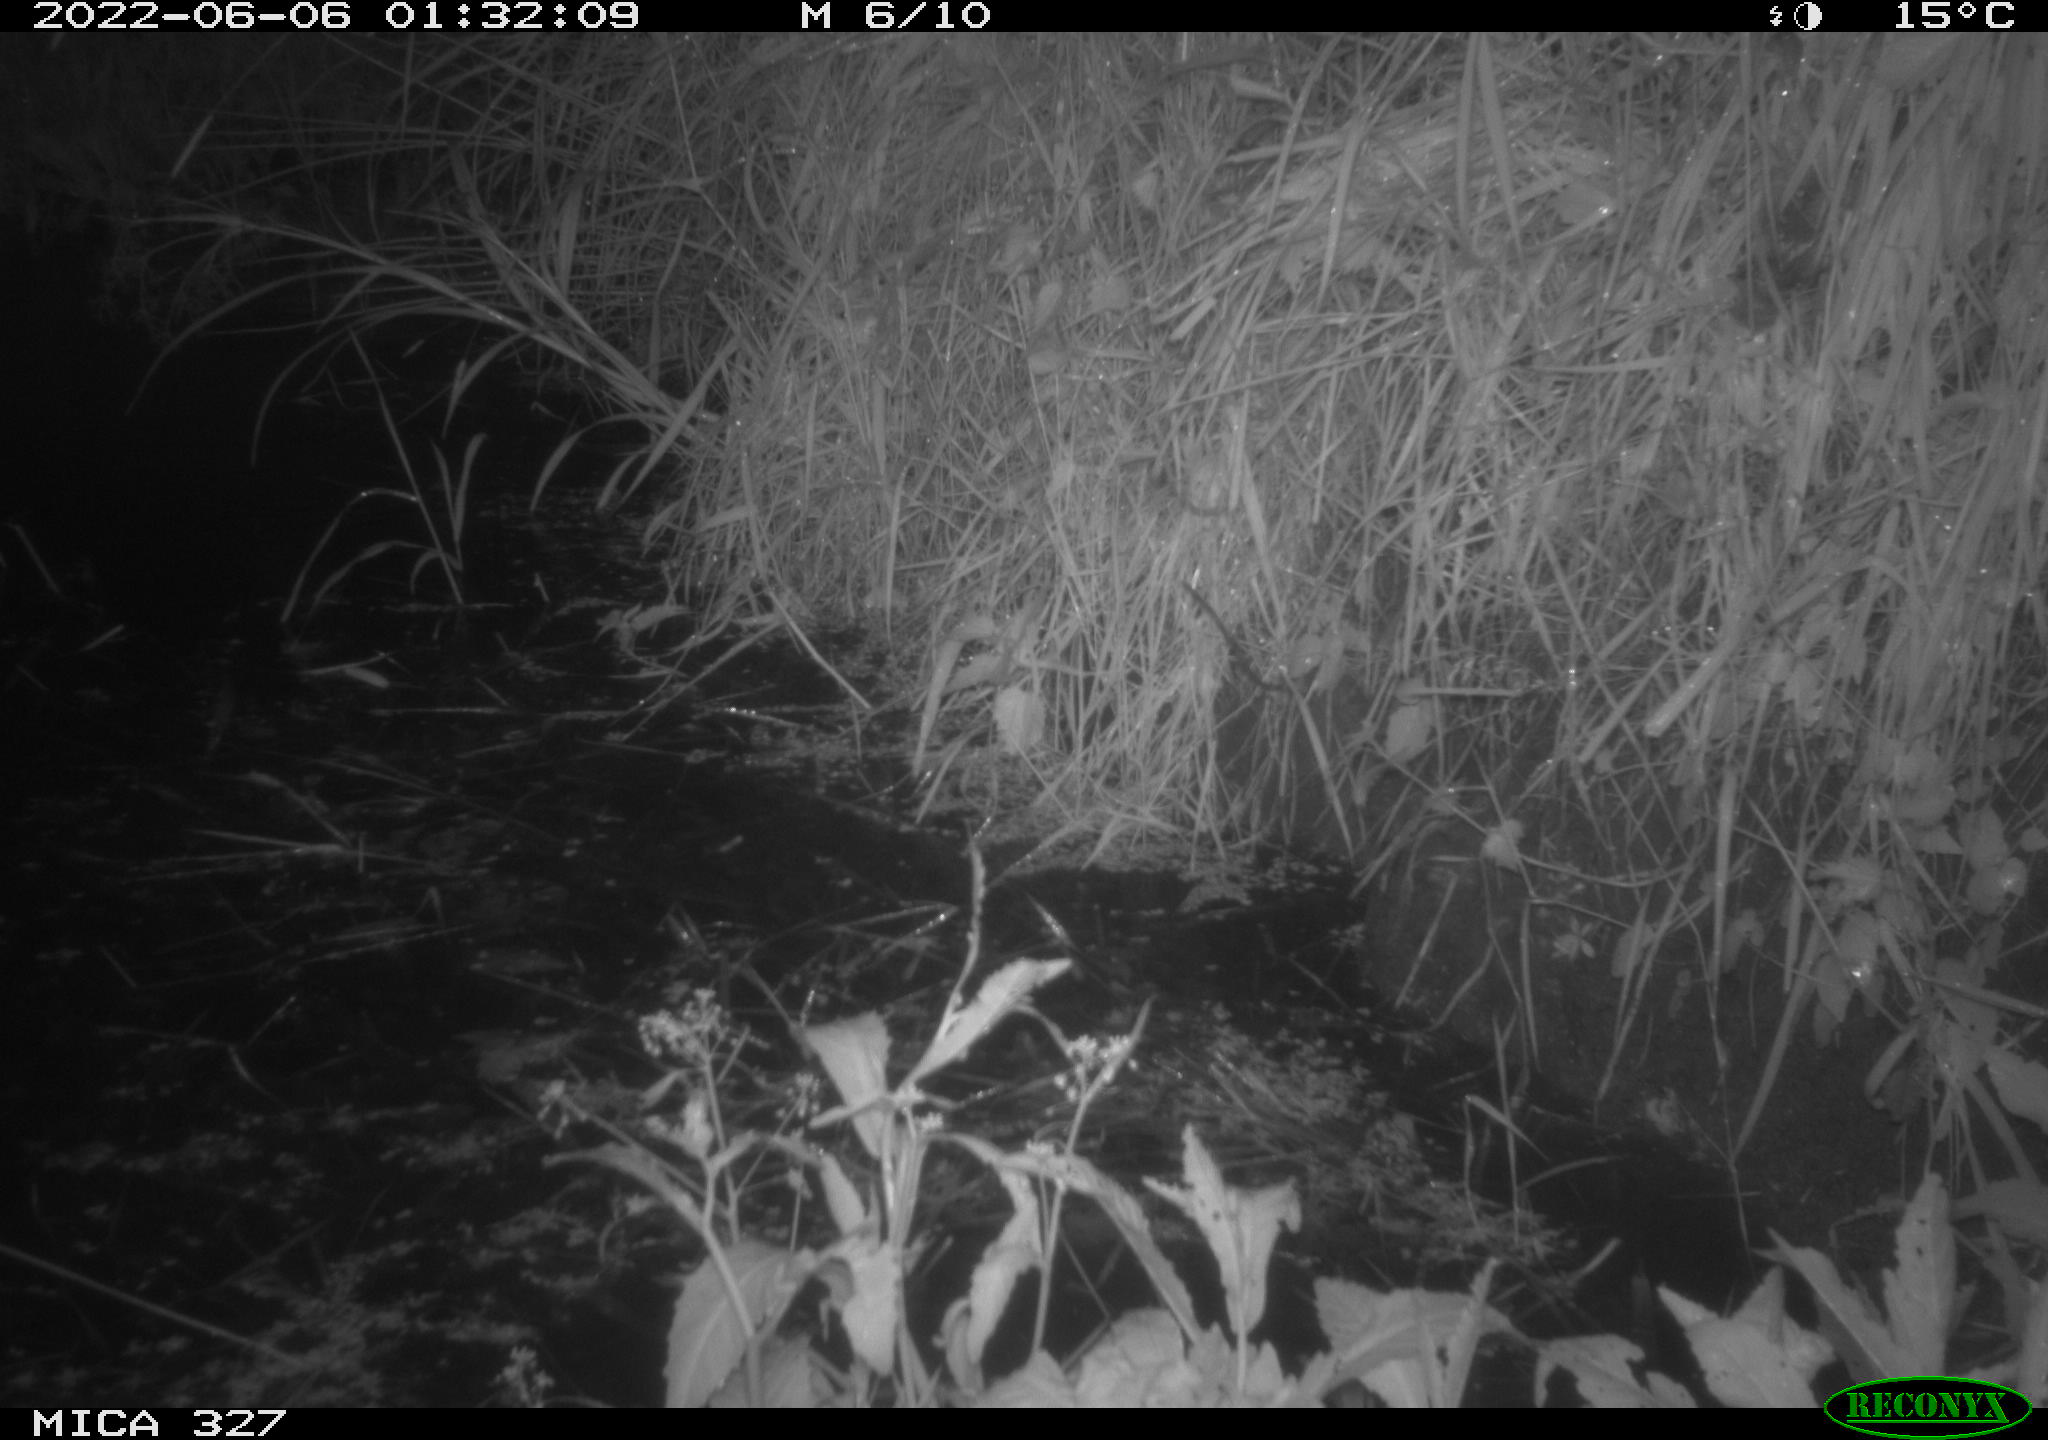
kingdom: Animalia
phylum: Chordata
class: Mammalia
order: Rodentia
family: Muridae
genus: Rattus
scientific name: Rattus norvegicus
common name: Brown rat
